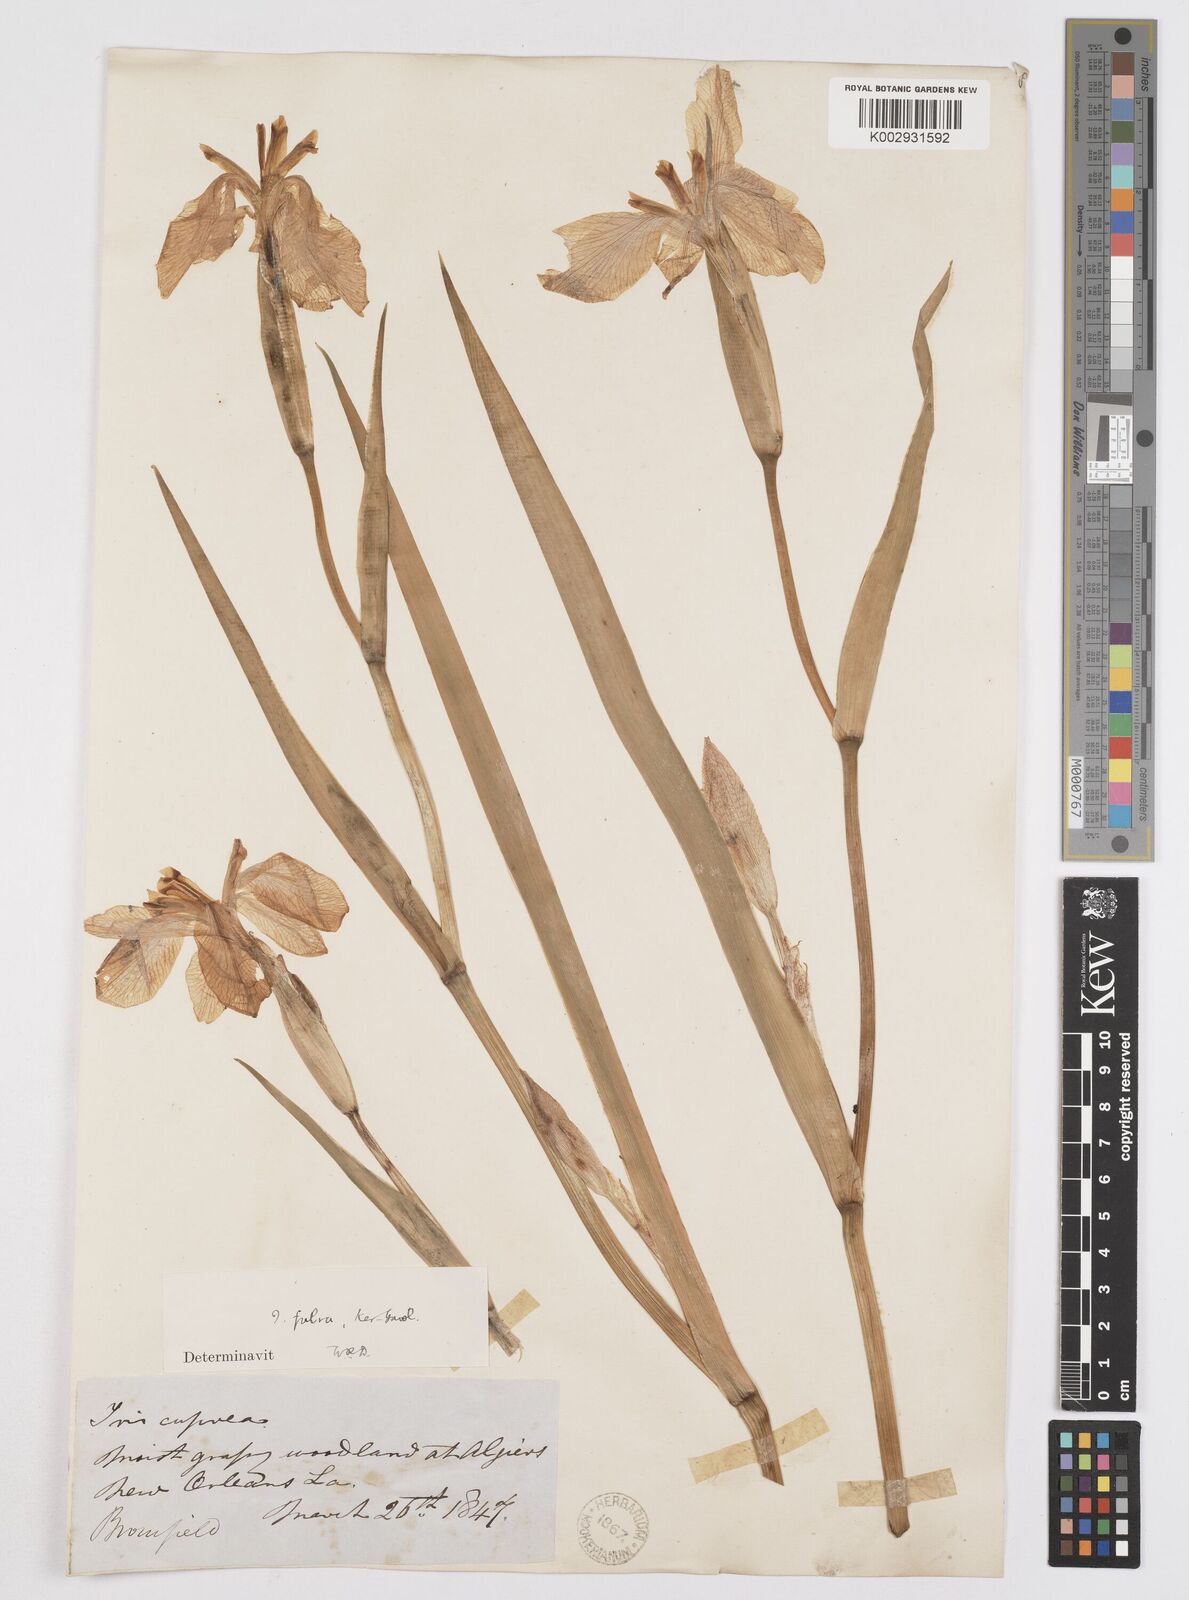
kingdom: Plantae
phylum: Tracheophyta
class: Liliopsida
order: Asparagales
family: Iridaceae
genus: Iris
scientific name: Iris fulva
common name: Copper iris
